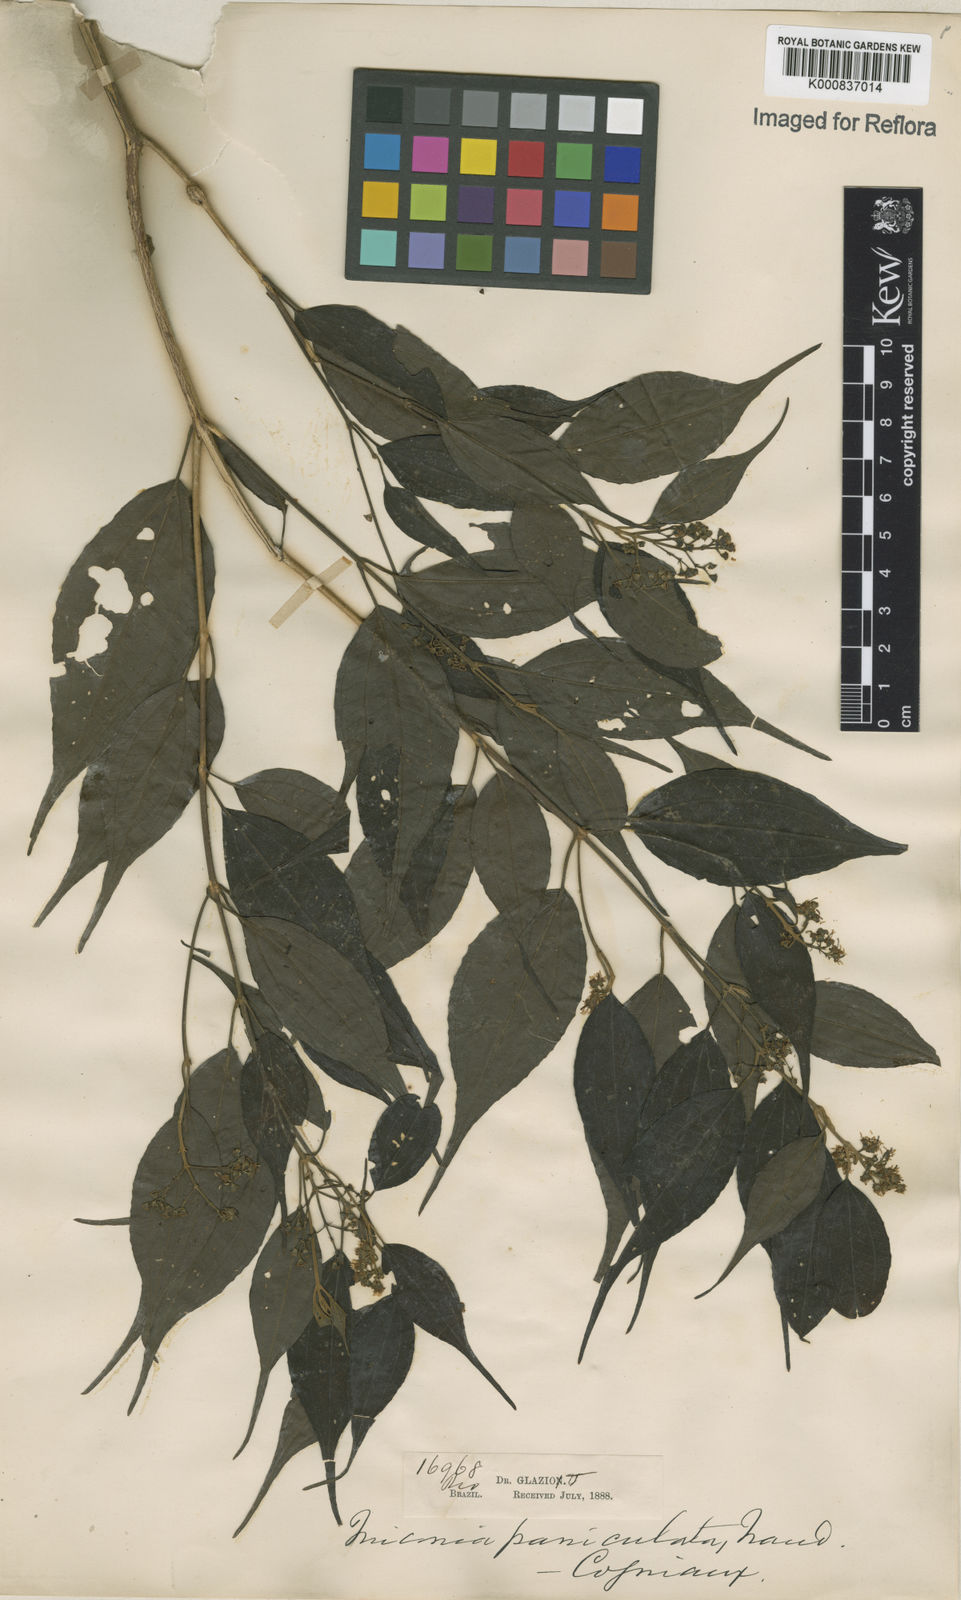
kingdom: Plantae
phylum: Tracheophyta
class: Magnoliopsida
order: Myrtales
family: Melastomataceae
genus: Miconia
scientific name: Miconia paniculata
